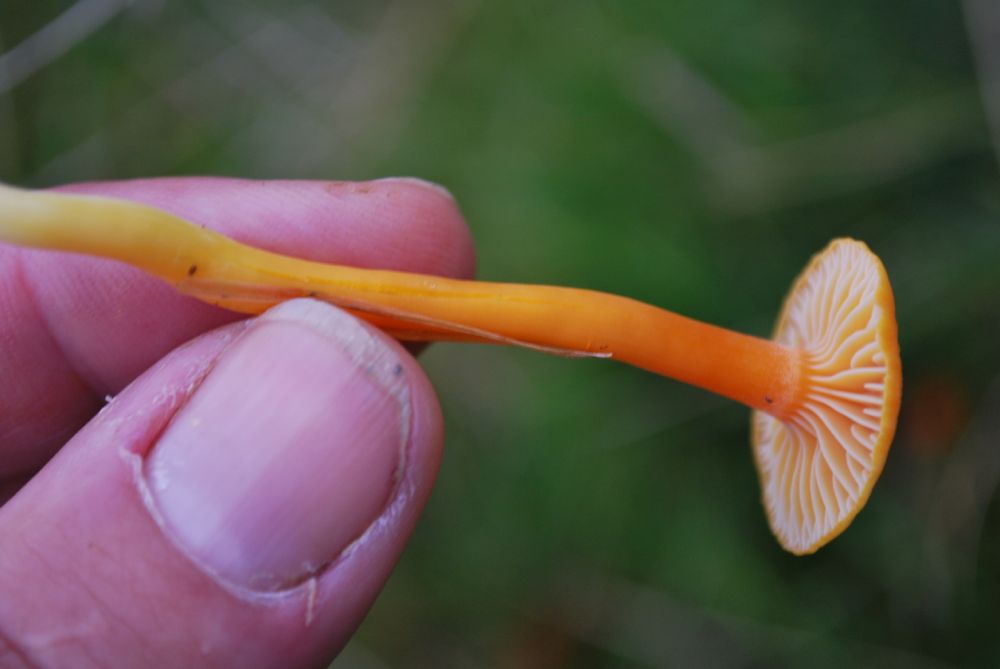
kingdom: Fungi
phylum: Basidiomycota
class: Agaricomycetes
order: Agaricales
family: Hygrophoraceae
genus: Hygrocybe
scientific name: Hygrocybe insipida
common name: liden vokshat
